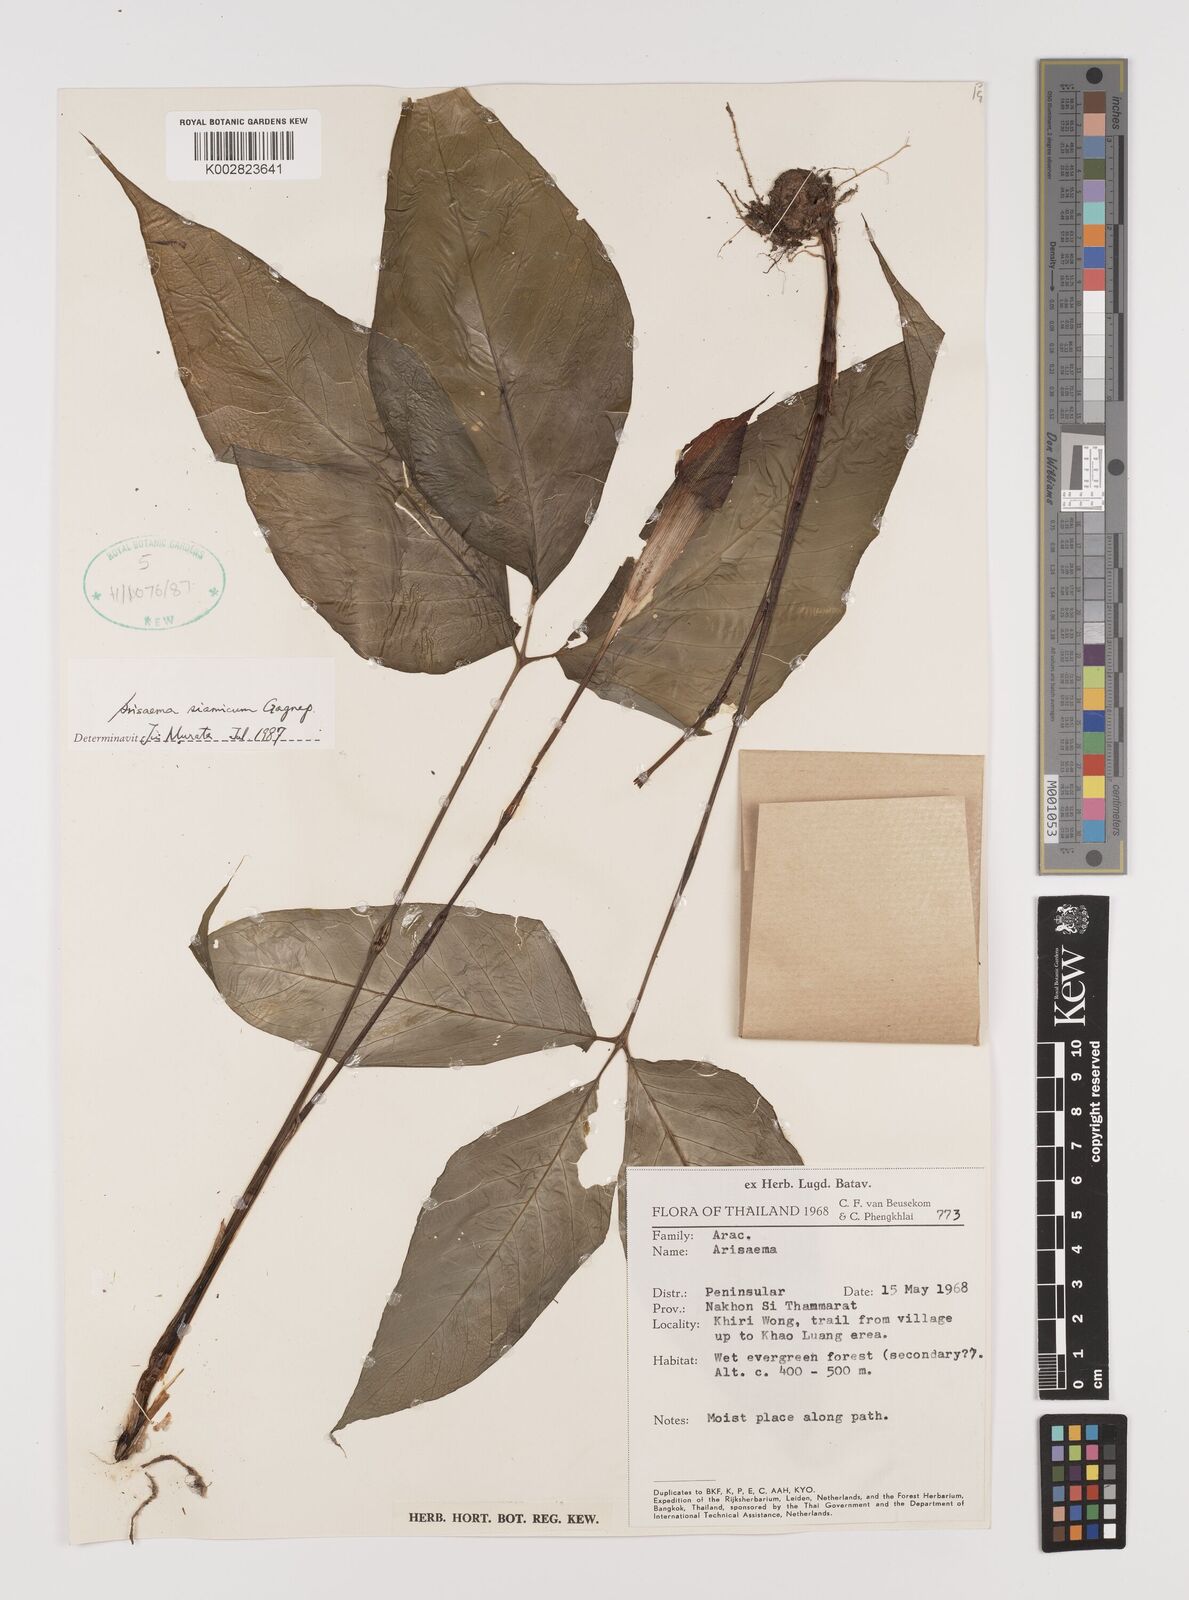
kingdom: Plantae
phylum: Tracheophyta
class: Liliopsida
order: Alismatales
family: Araceae
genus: Arisaema
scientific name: Arisaema siamicum
